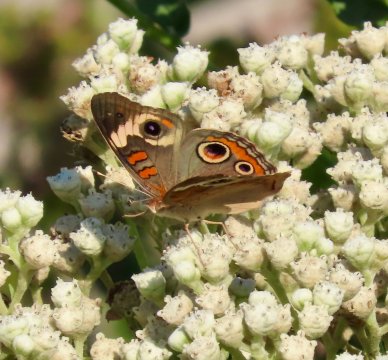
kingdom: Animalia
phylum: Arthropoda
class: Insecta
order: Lepidoptera
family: Nymphalidae
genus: Junonia
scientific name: Junonia coenia
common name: Common Buckeye
